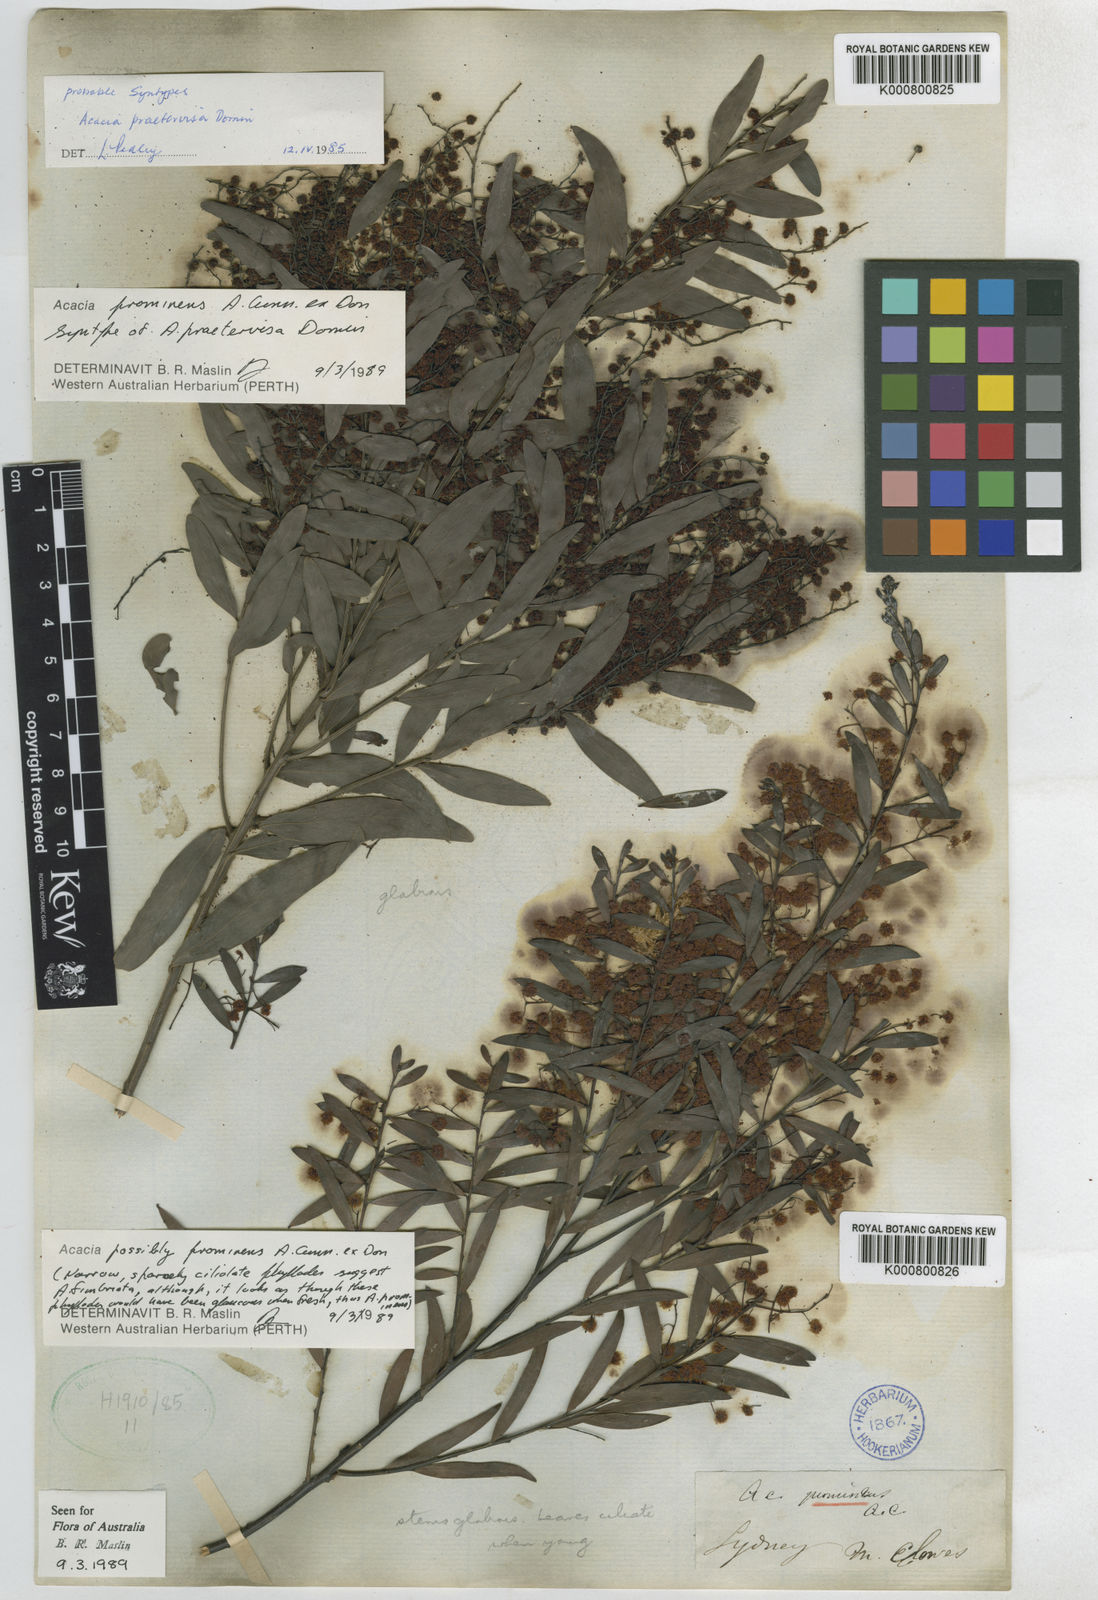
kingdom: Plantae
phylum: Tracheophyta
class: Magnoliopsida
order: Fabales
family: Fabaceae
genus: Acacia
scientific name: Acacia prominens
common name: Gosford wattle
